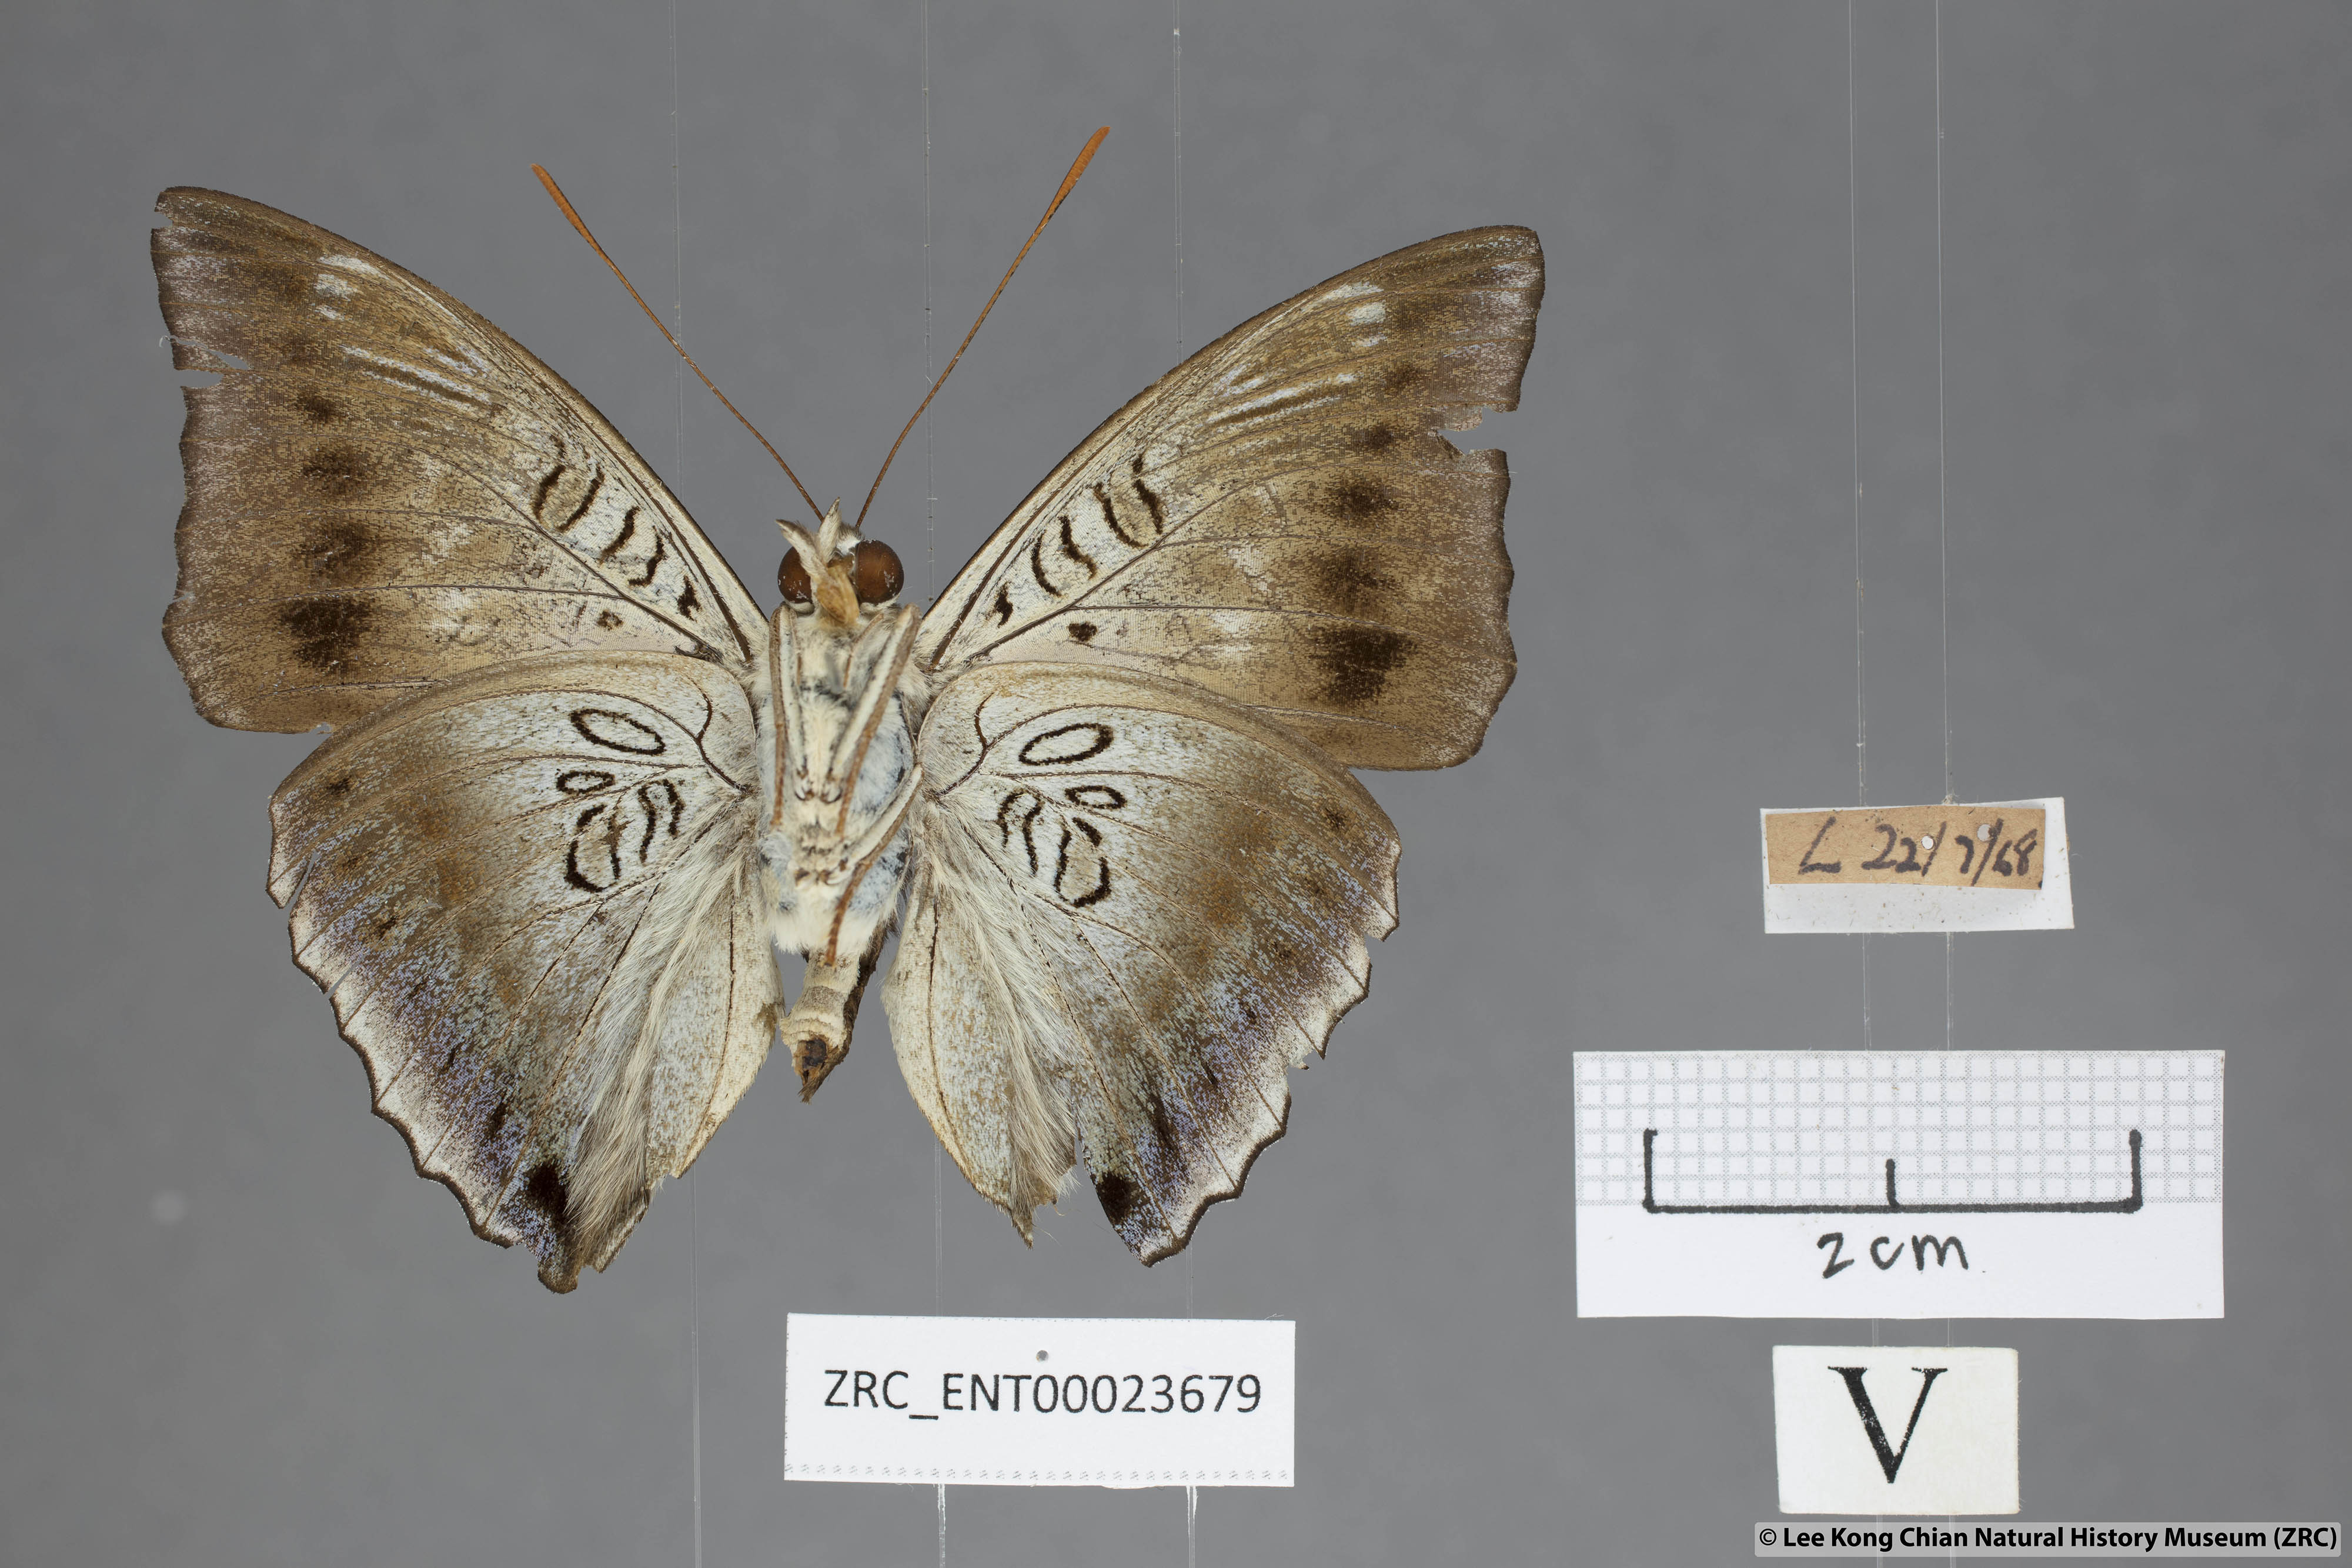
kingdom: Animalia
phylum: Arthropoda
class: Insecta
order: Lepidoptera
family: Nymphalidae
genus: Euthalia
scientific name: Euthalia phemius
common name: White-edged blue baron
